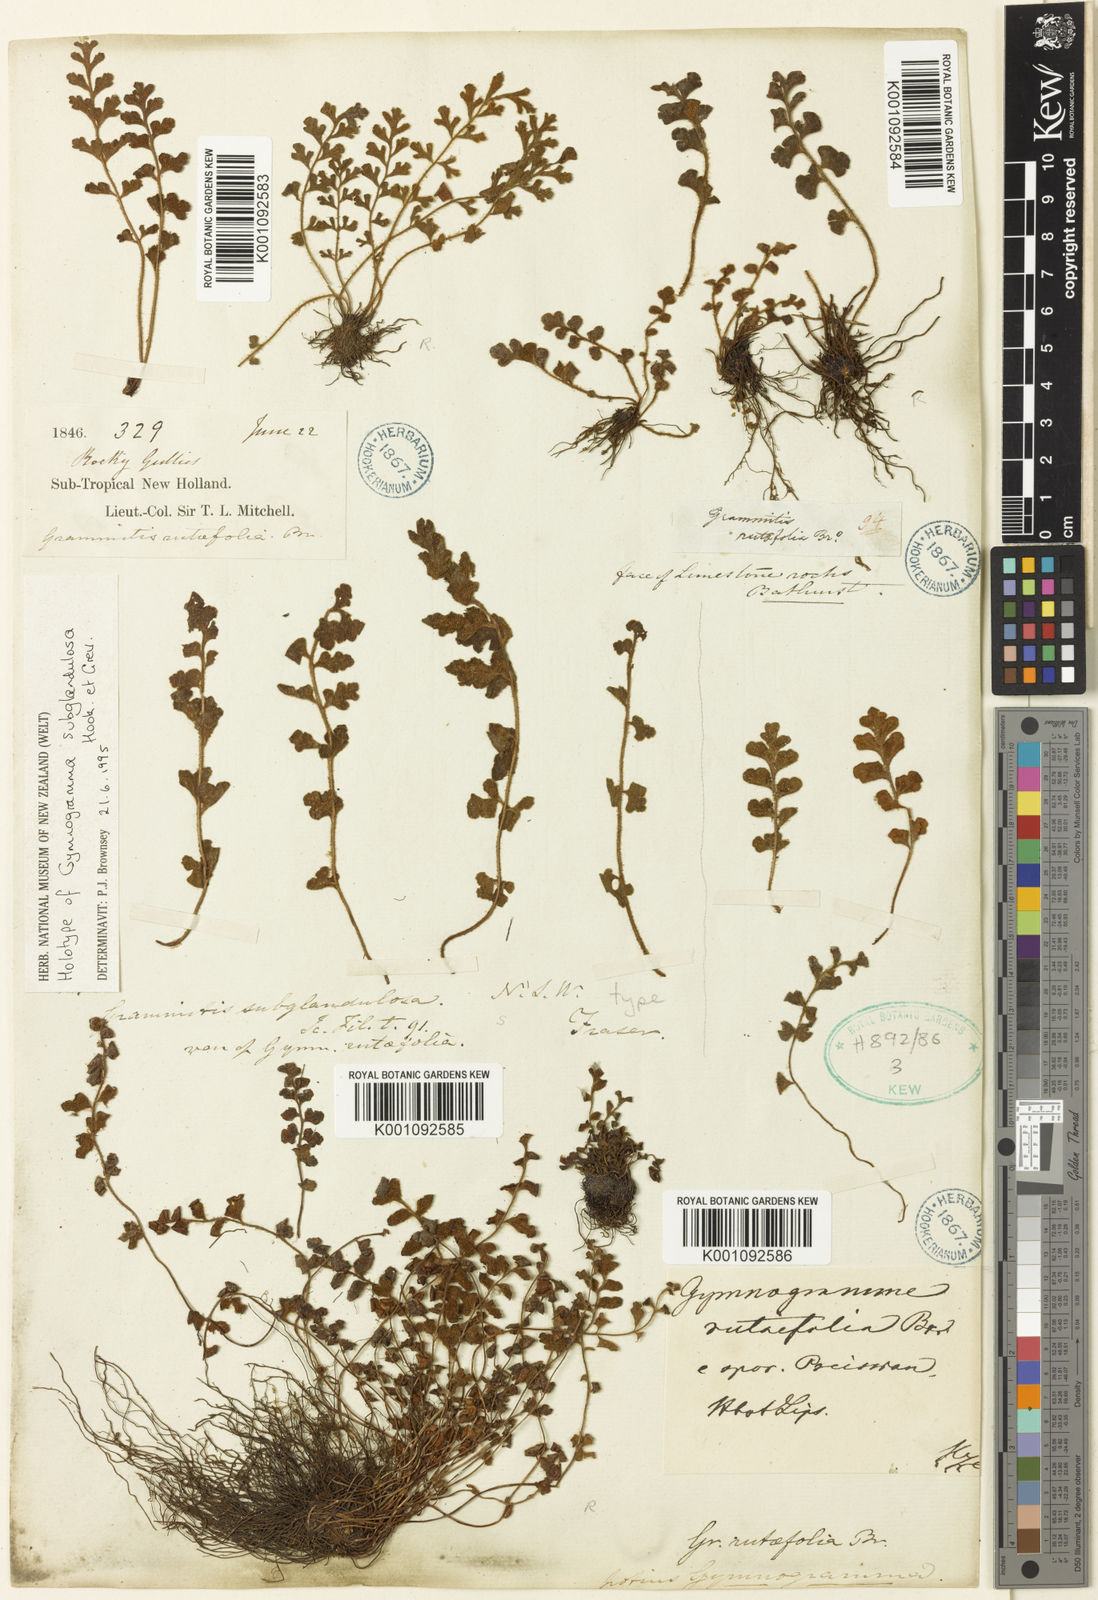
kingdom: Plantae
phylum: Tracheophyta
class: Polypodiopsida
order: Polypodiales
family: Aspleniaceae
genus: Asplenium
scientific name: Asplenium subglandulosum
